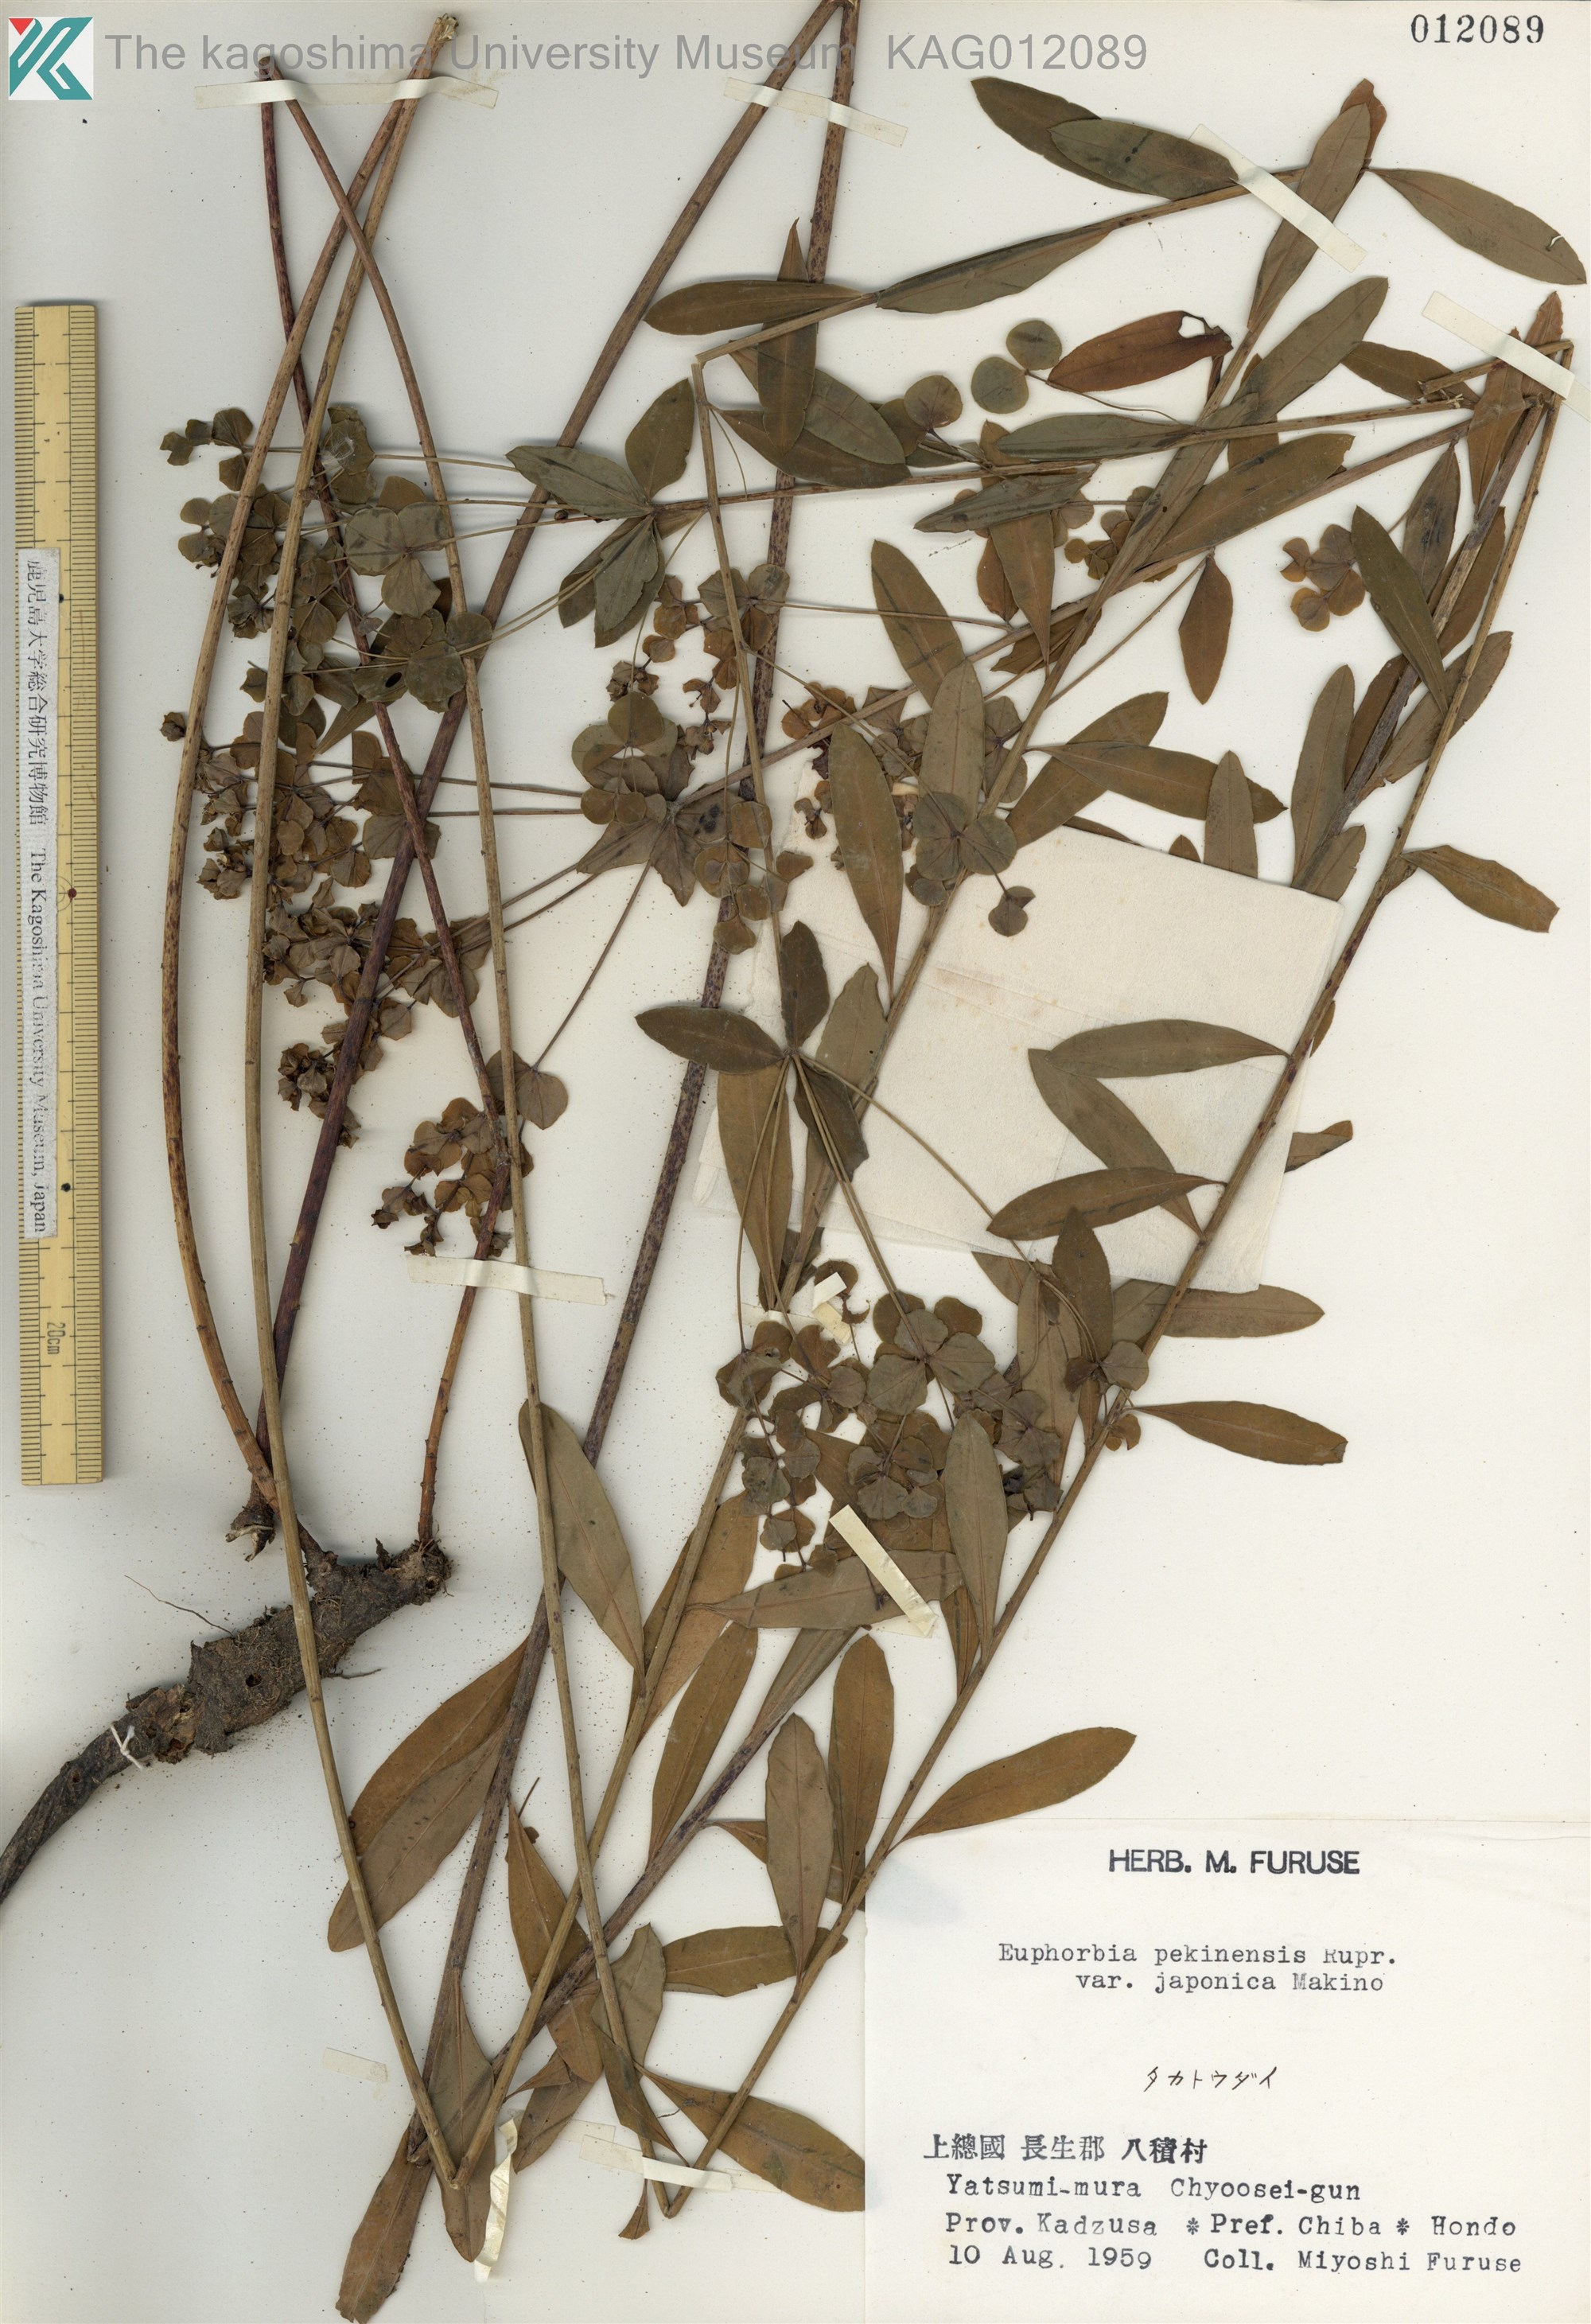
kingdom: Plantae
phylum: Tracheophyta
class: Magnoliopsida
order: Malpighiales
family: Euphorbiaceae
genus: Euphorbia
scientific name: Euphorbia pekinensis
